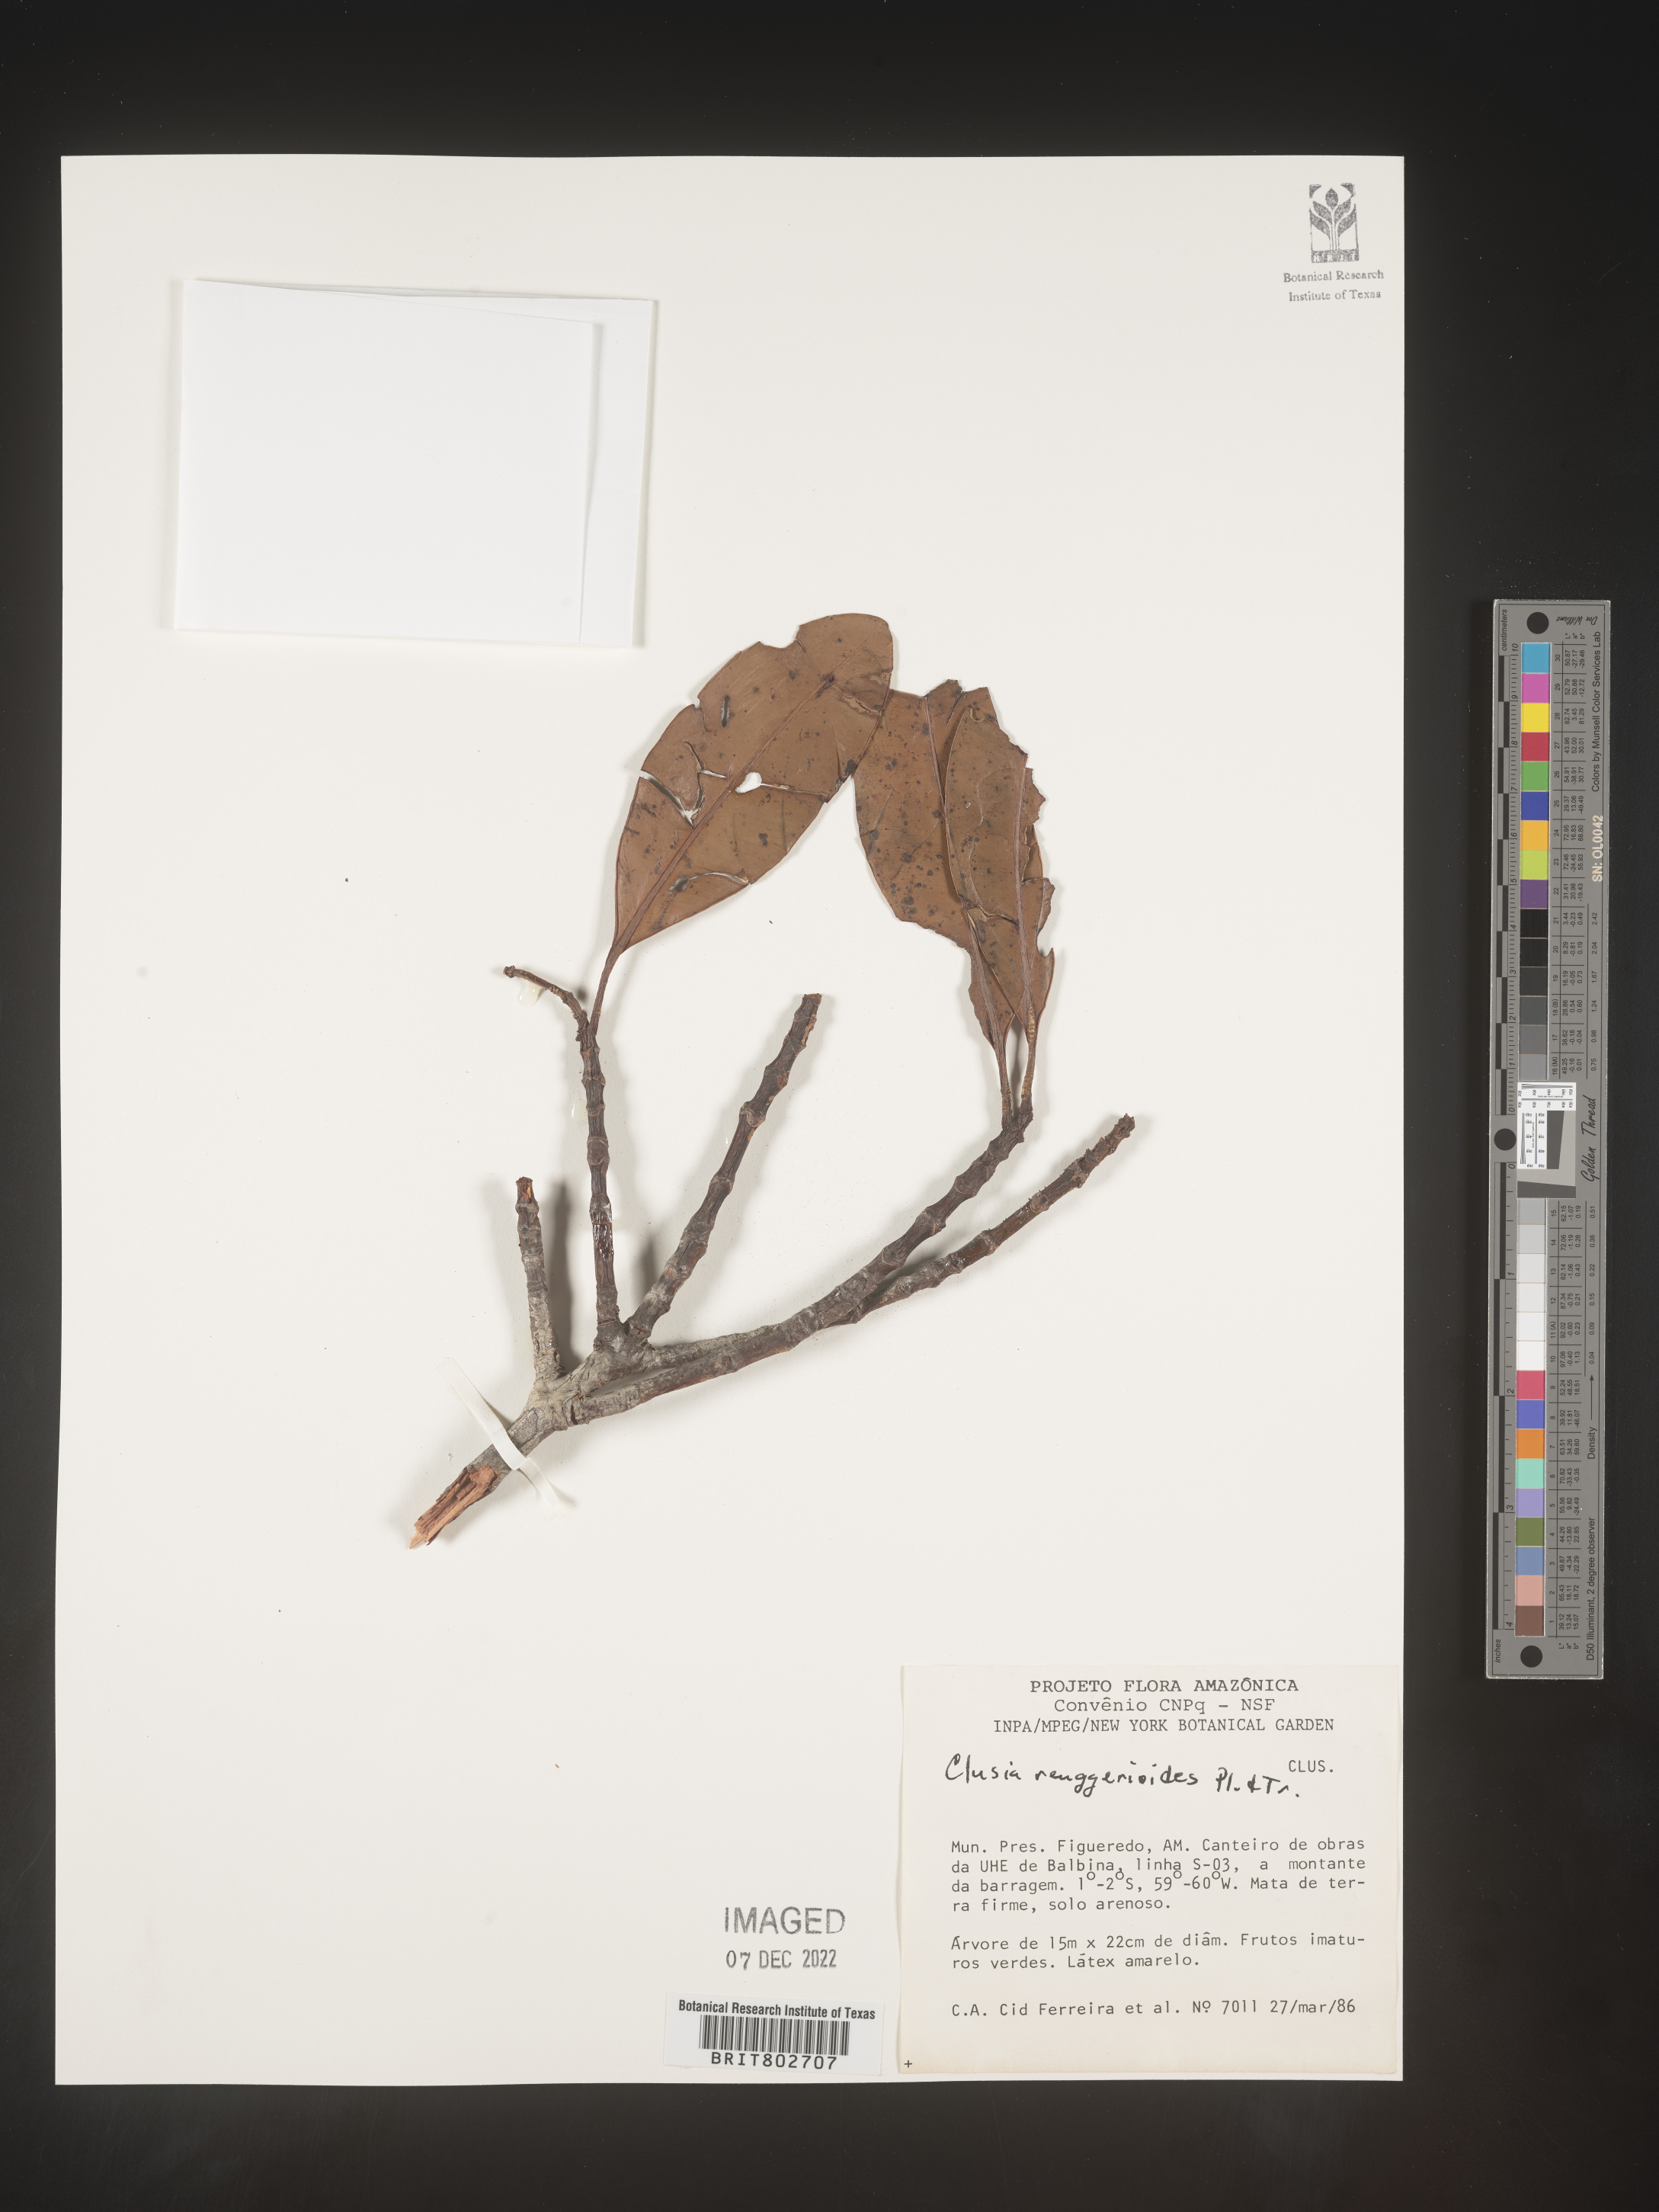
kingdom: Plantae
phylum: Tracheophyta
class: Magnoliopsida
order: Malpighiales
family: Clusiaceae
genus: Clusia
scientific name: Clusia renggerioides
